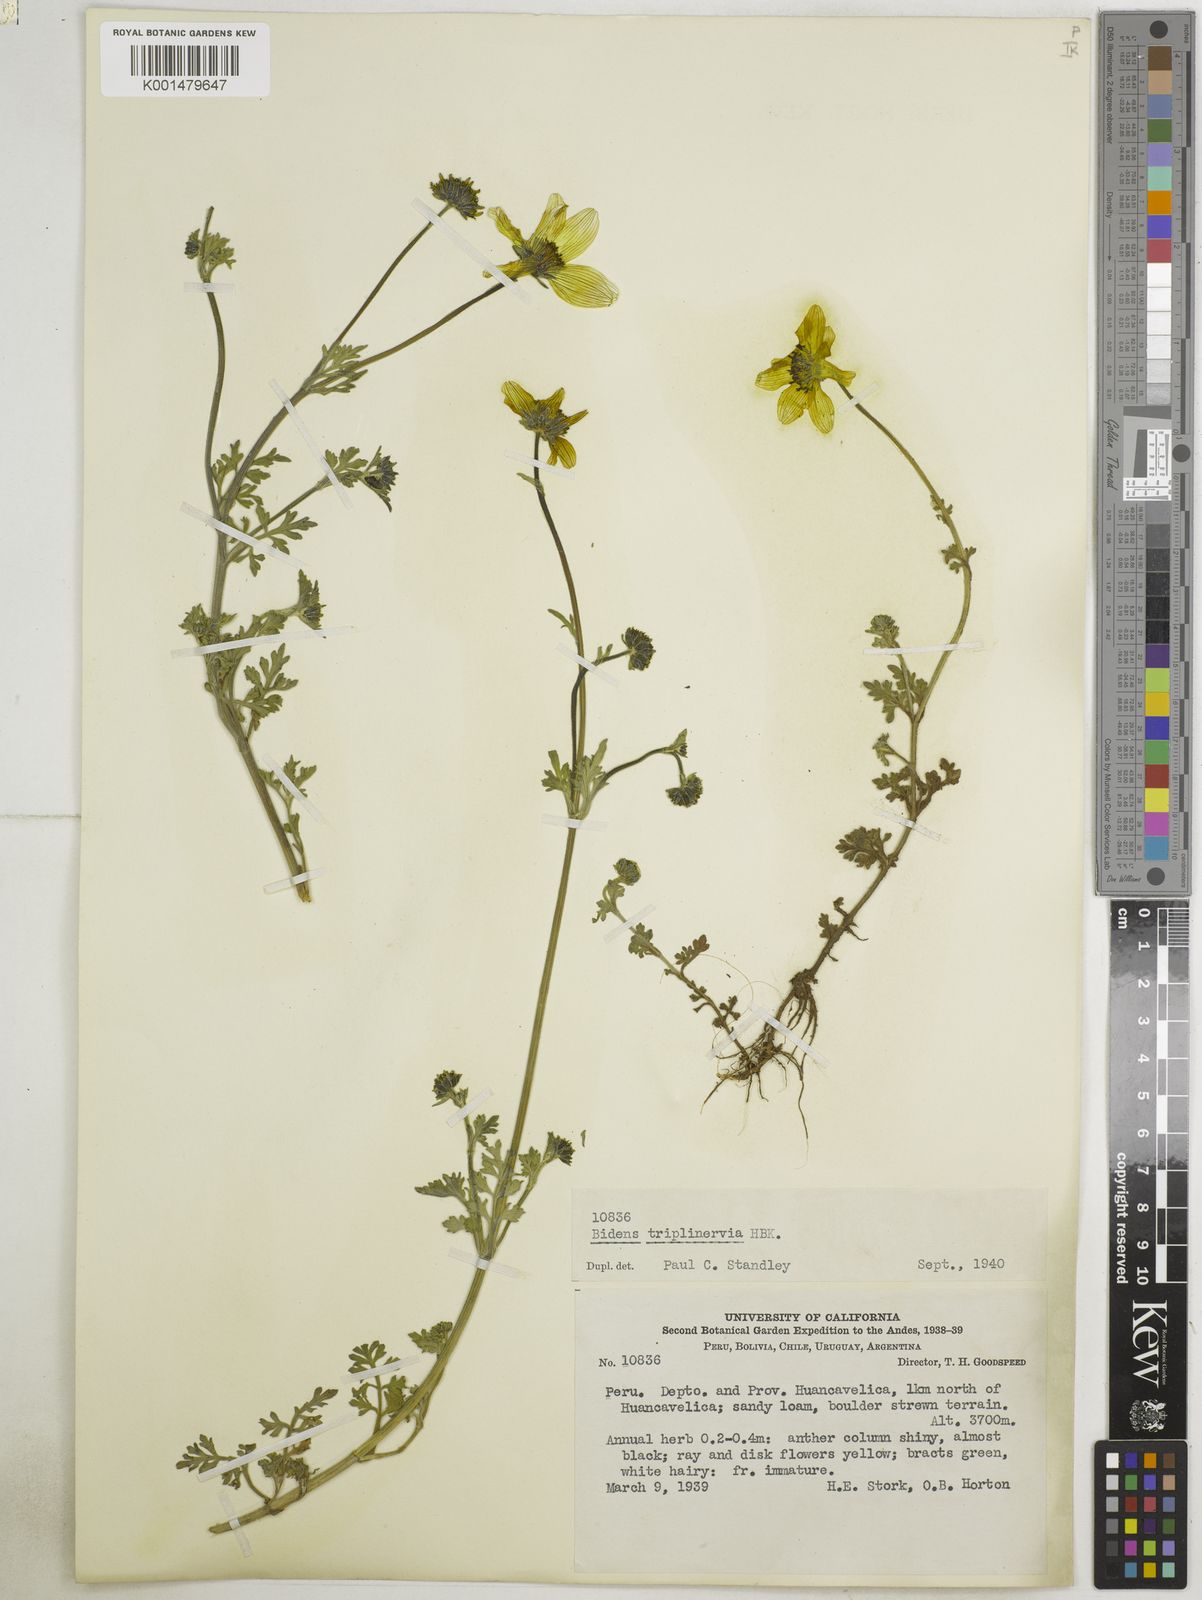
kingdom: Plantae
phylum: Tracheophyta
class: Magnoliopsida
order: Asterales
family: Asteraceae
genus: Bidens
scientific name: Bidens triplinervia
